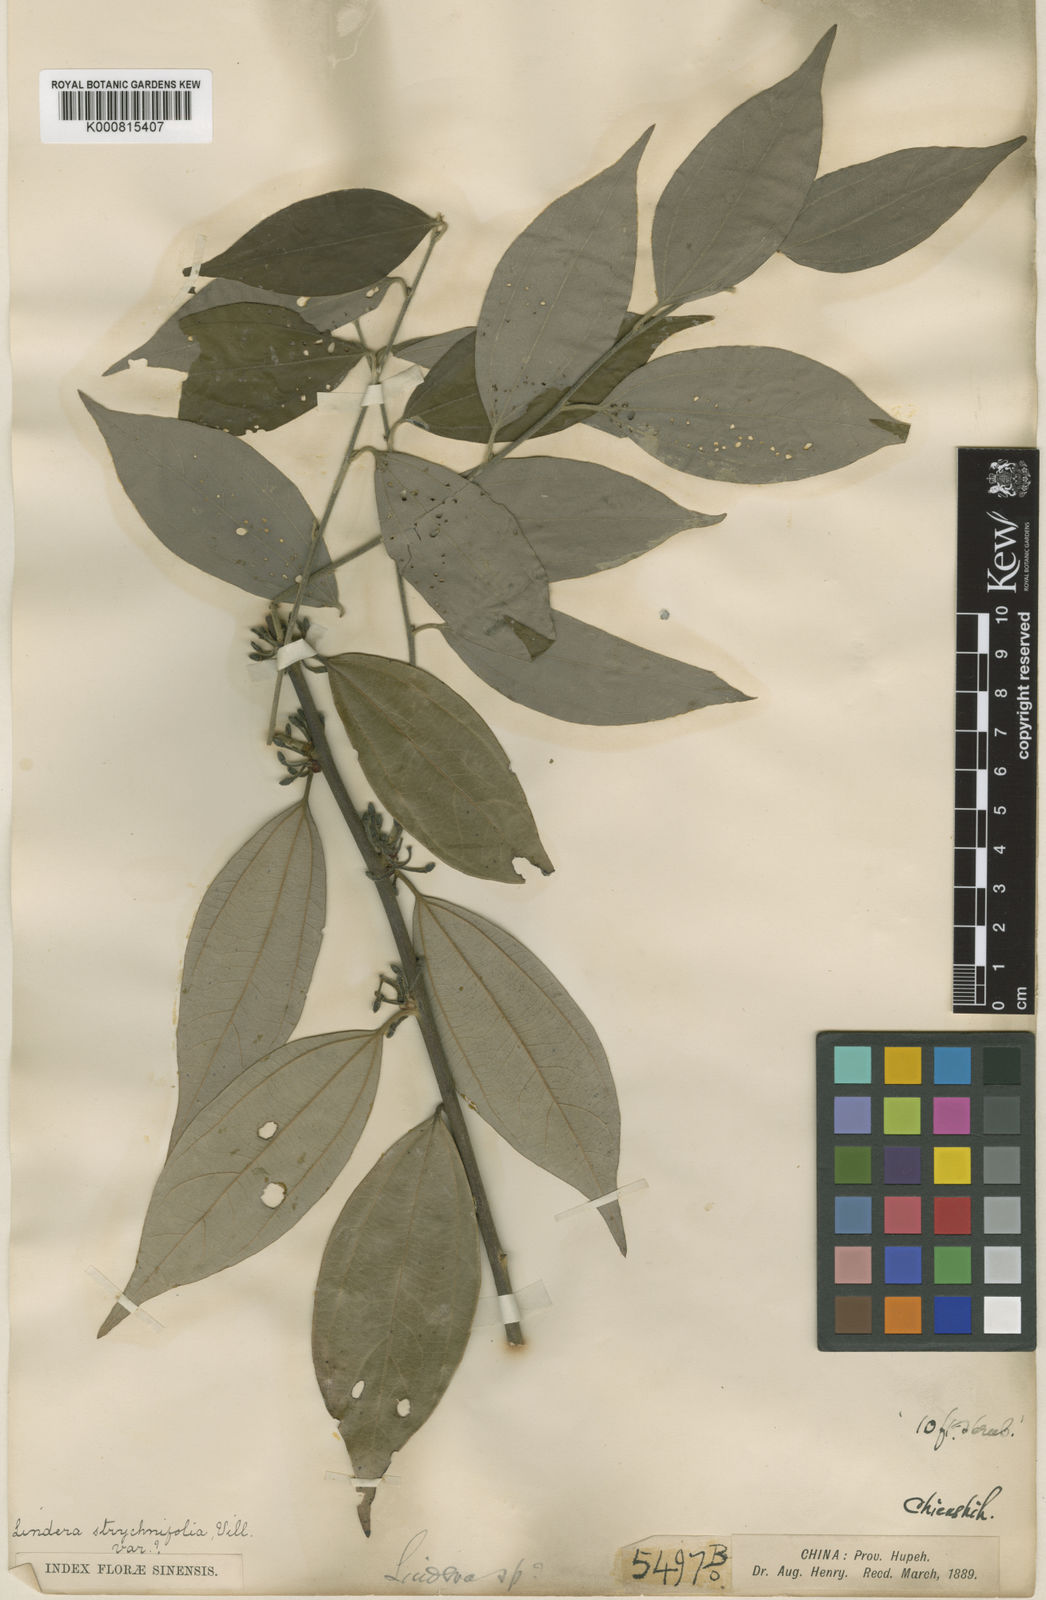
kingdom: Plantae
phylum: Tracheophyta
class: Magnoliopsida
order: Laurales
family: Lauraceae
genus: Lindera
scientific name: Lindera aggregata
